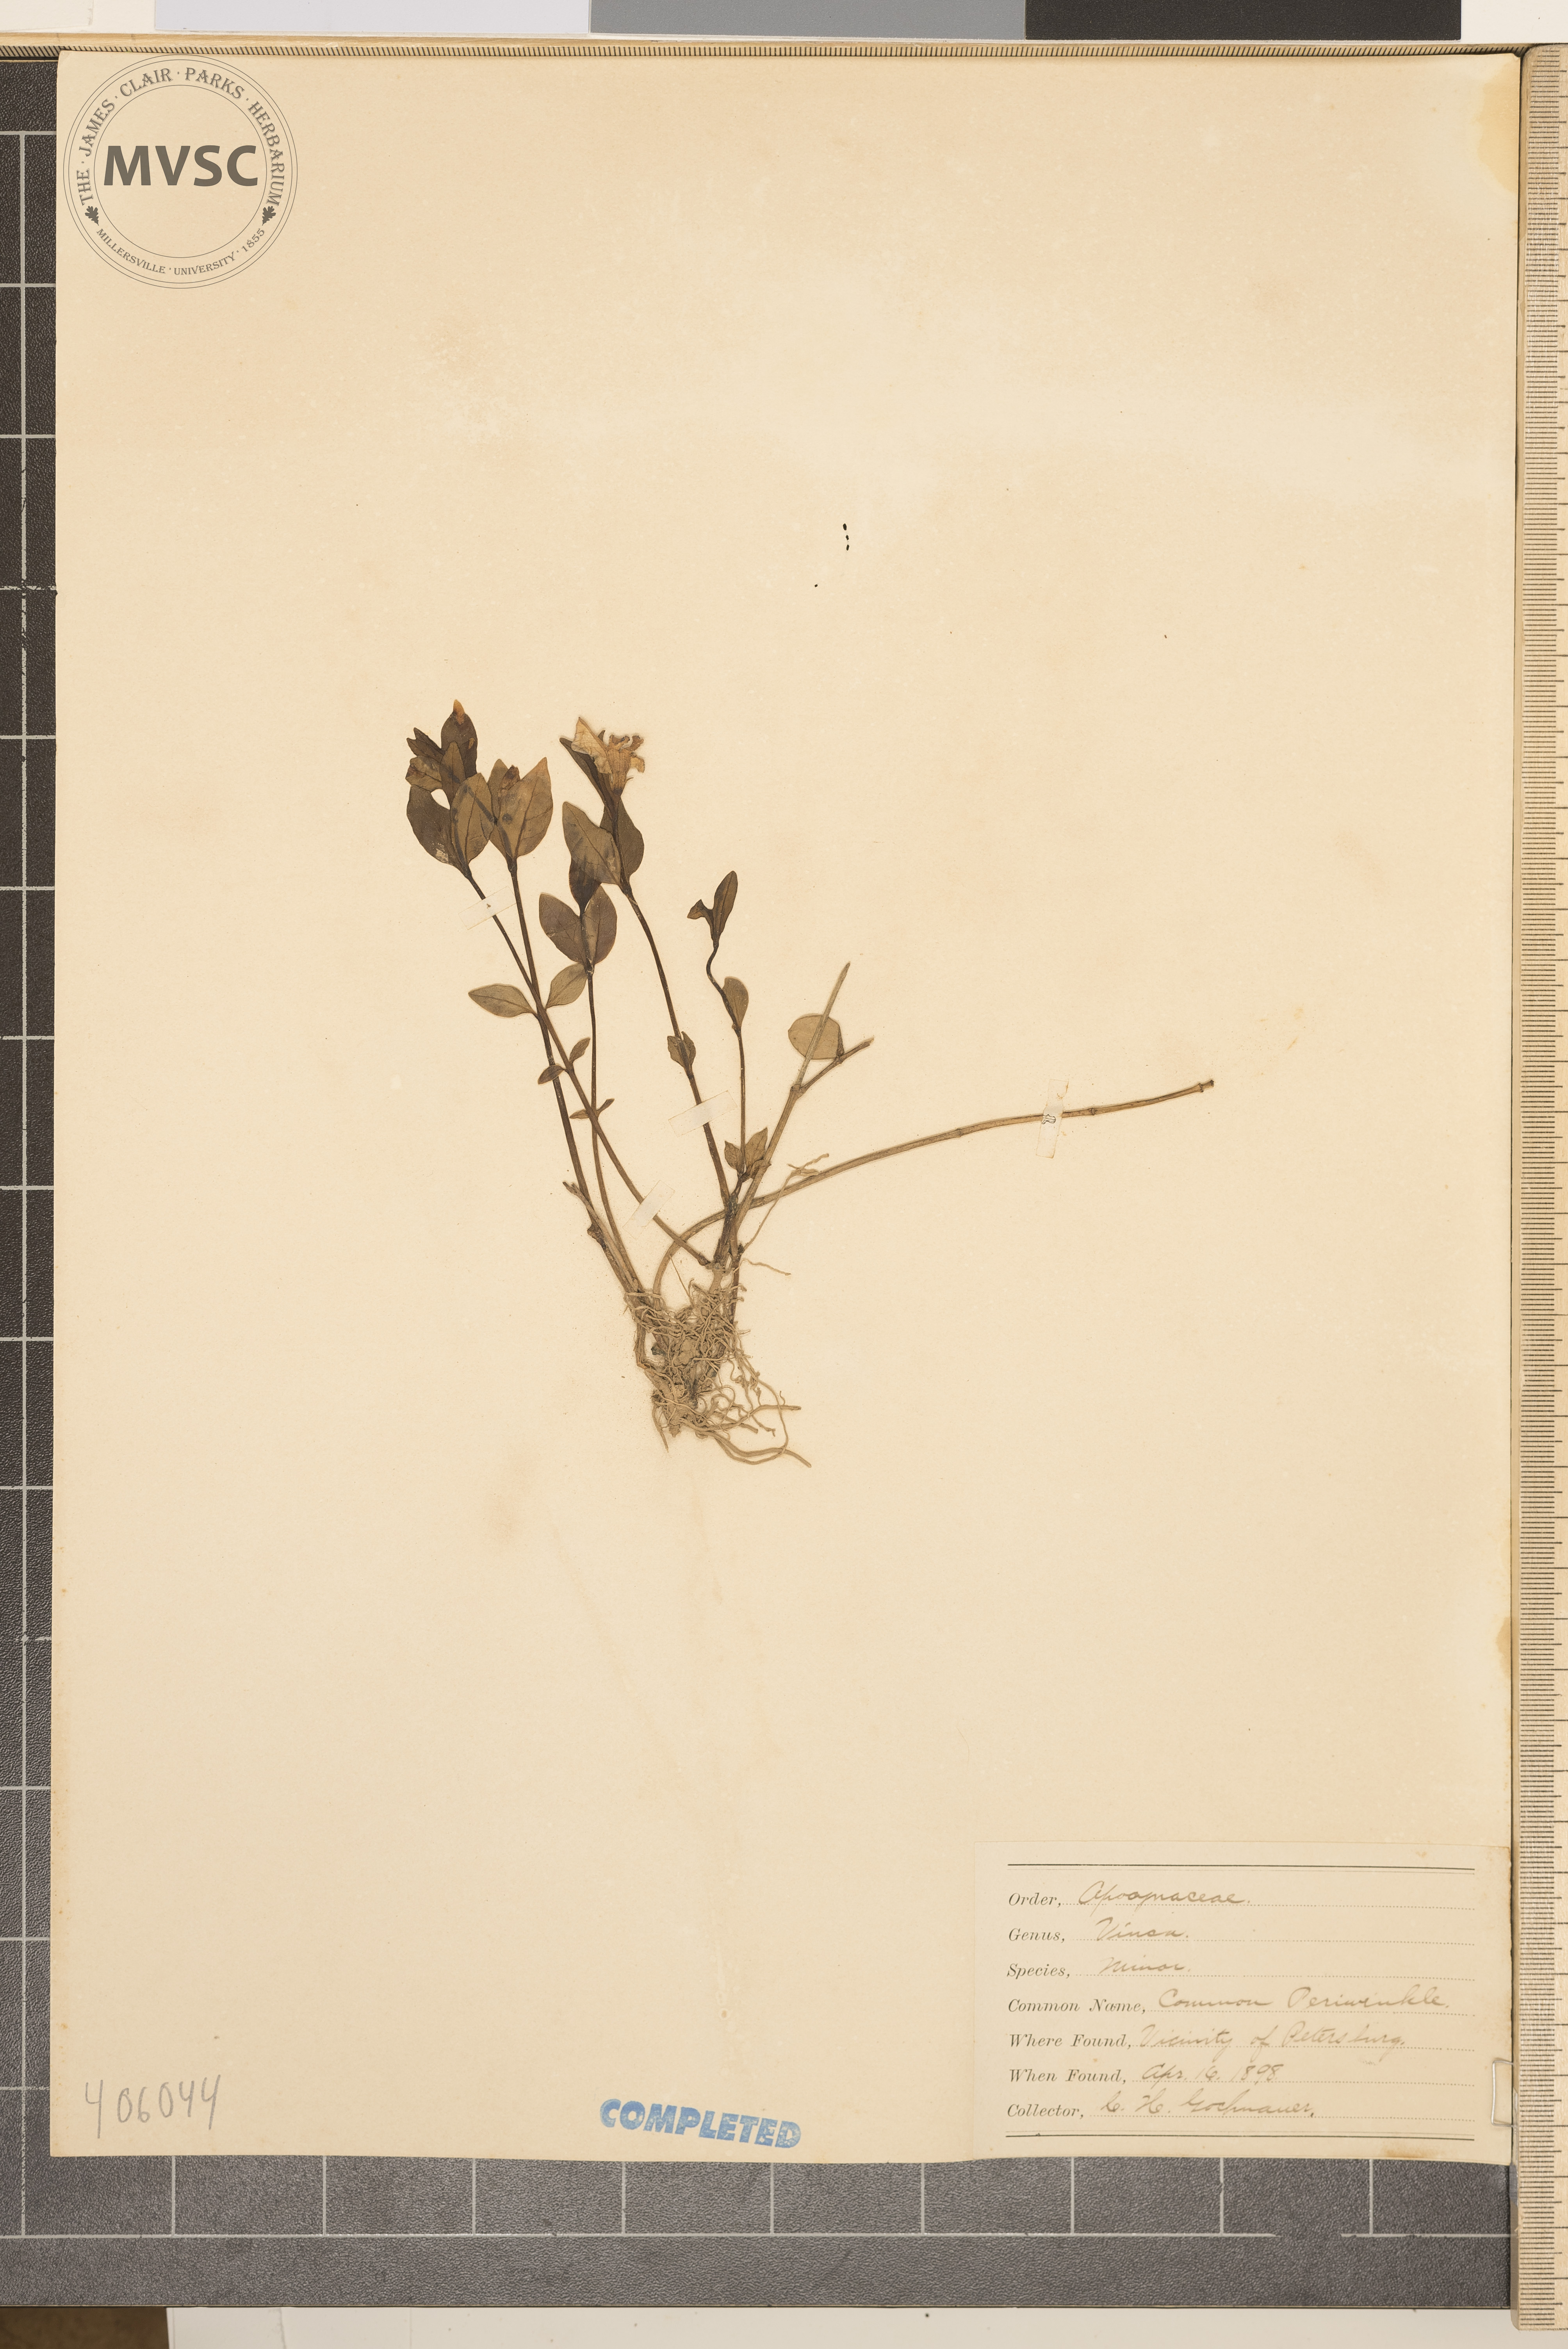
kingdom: Plantae
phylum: Tracheophyta
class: Magnoliopsida
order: Gentianales
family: Apocynaceae
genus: Vinca
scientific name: Vinca minor
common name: Lesser periwinkle
